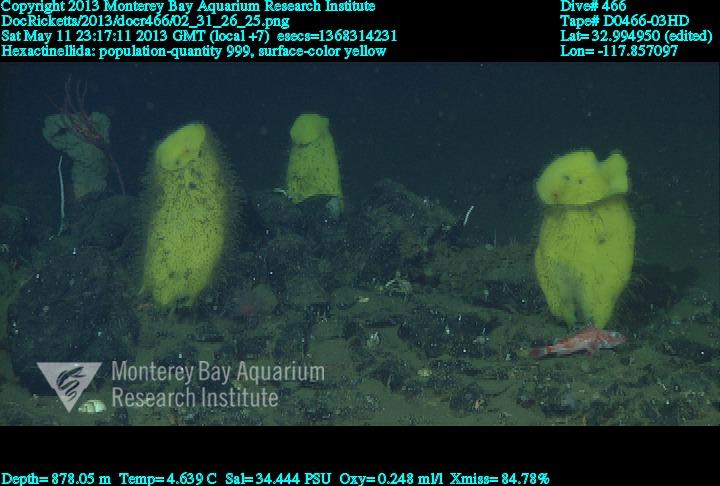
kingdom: Animalia
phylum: Porifera
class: Hexactinellida
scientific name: Hexactinellida
